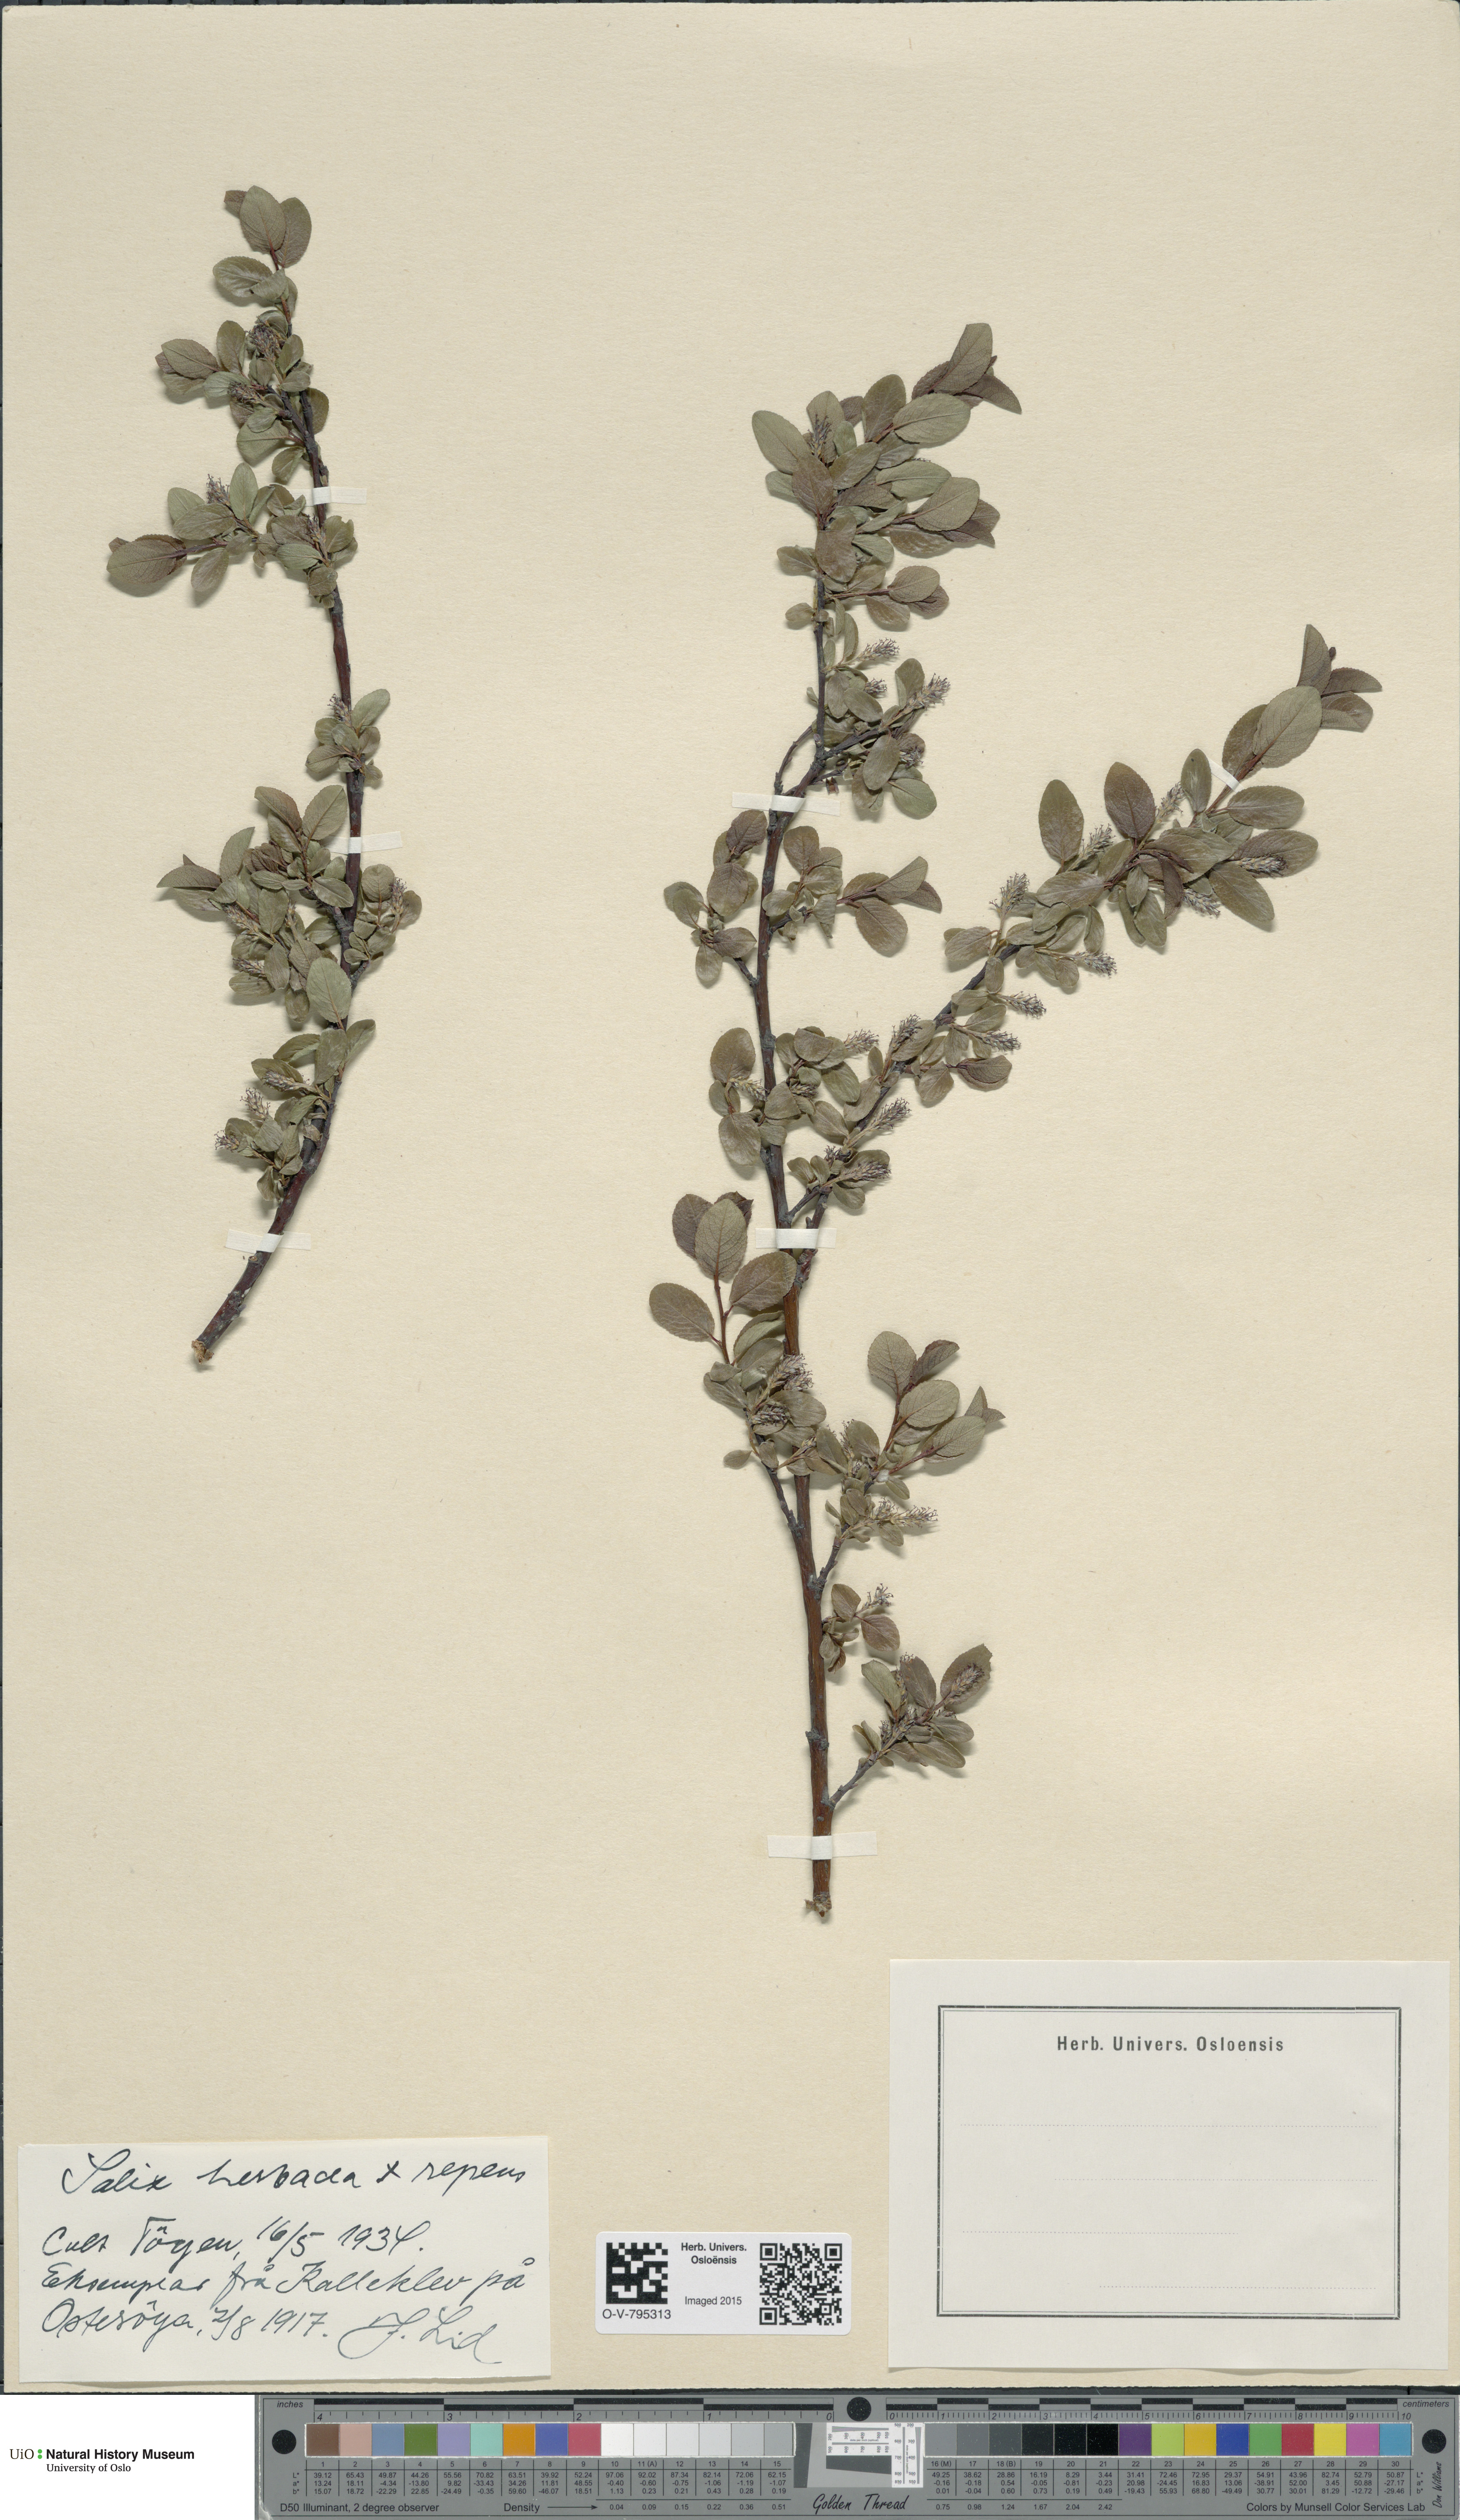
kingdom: Plantae
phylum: Tracheophyta
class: Magnoliopsida
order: Malpighiales
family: Salicaceae
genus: Salix
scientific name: Salix
